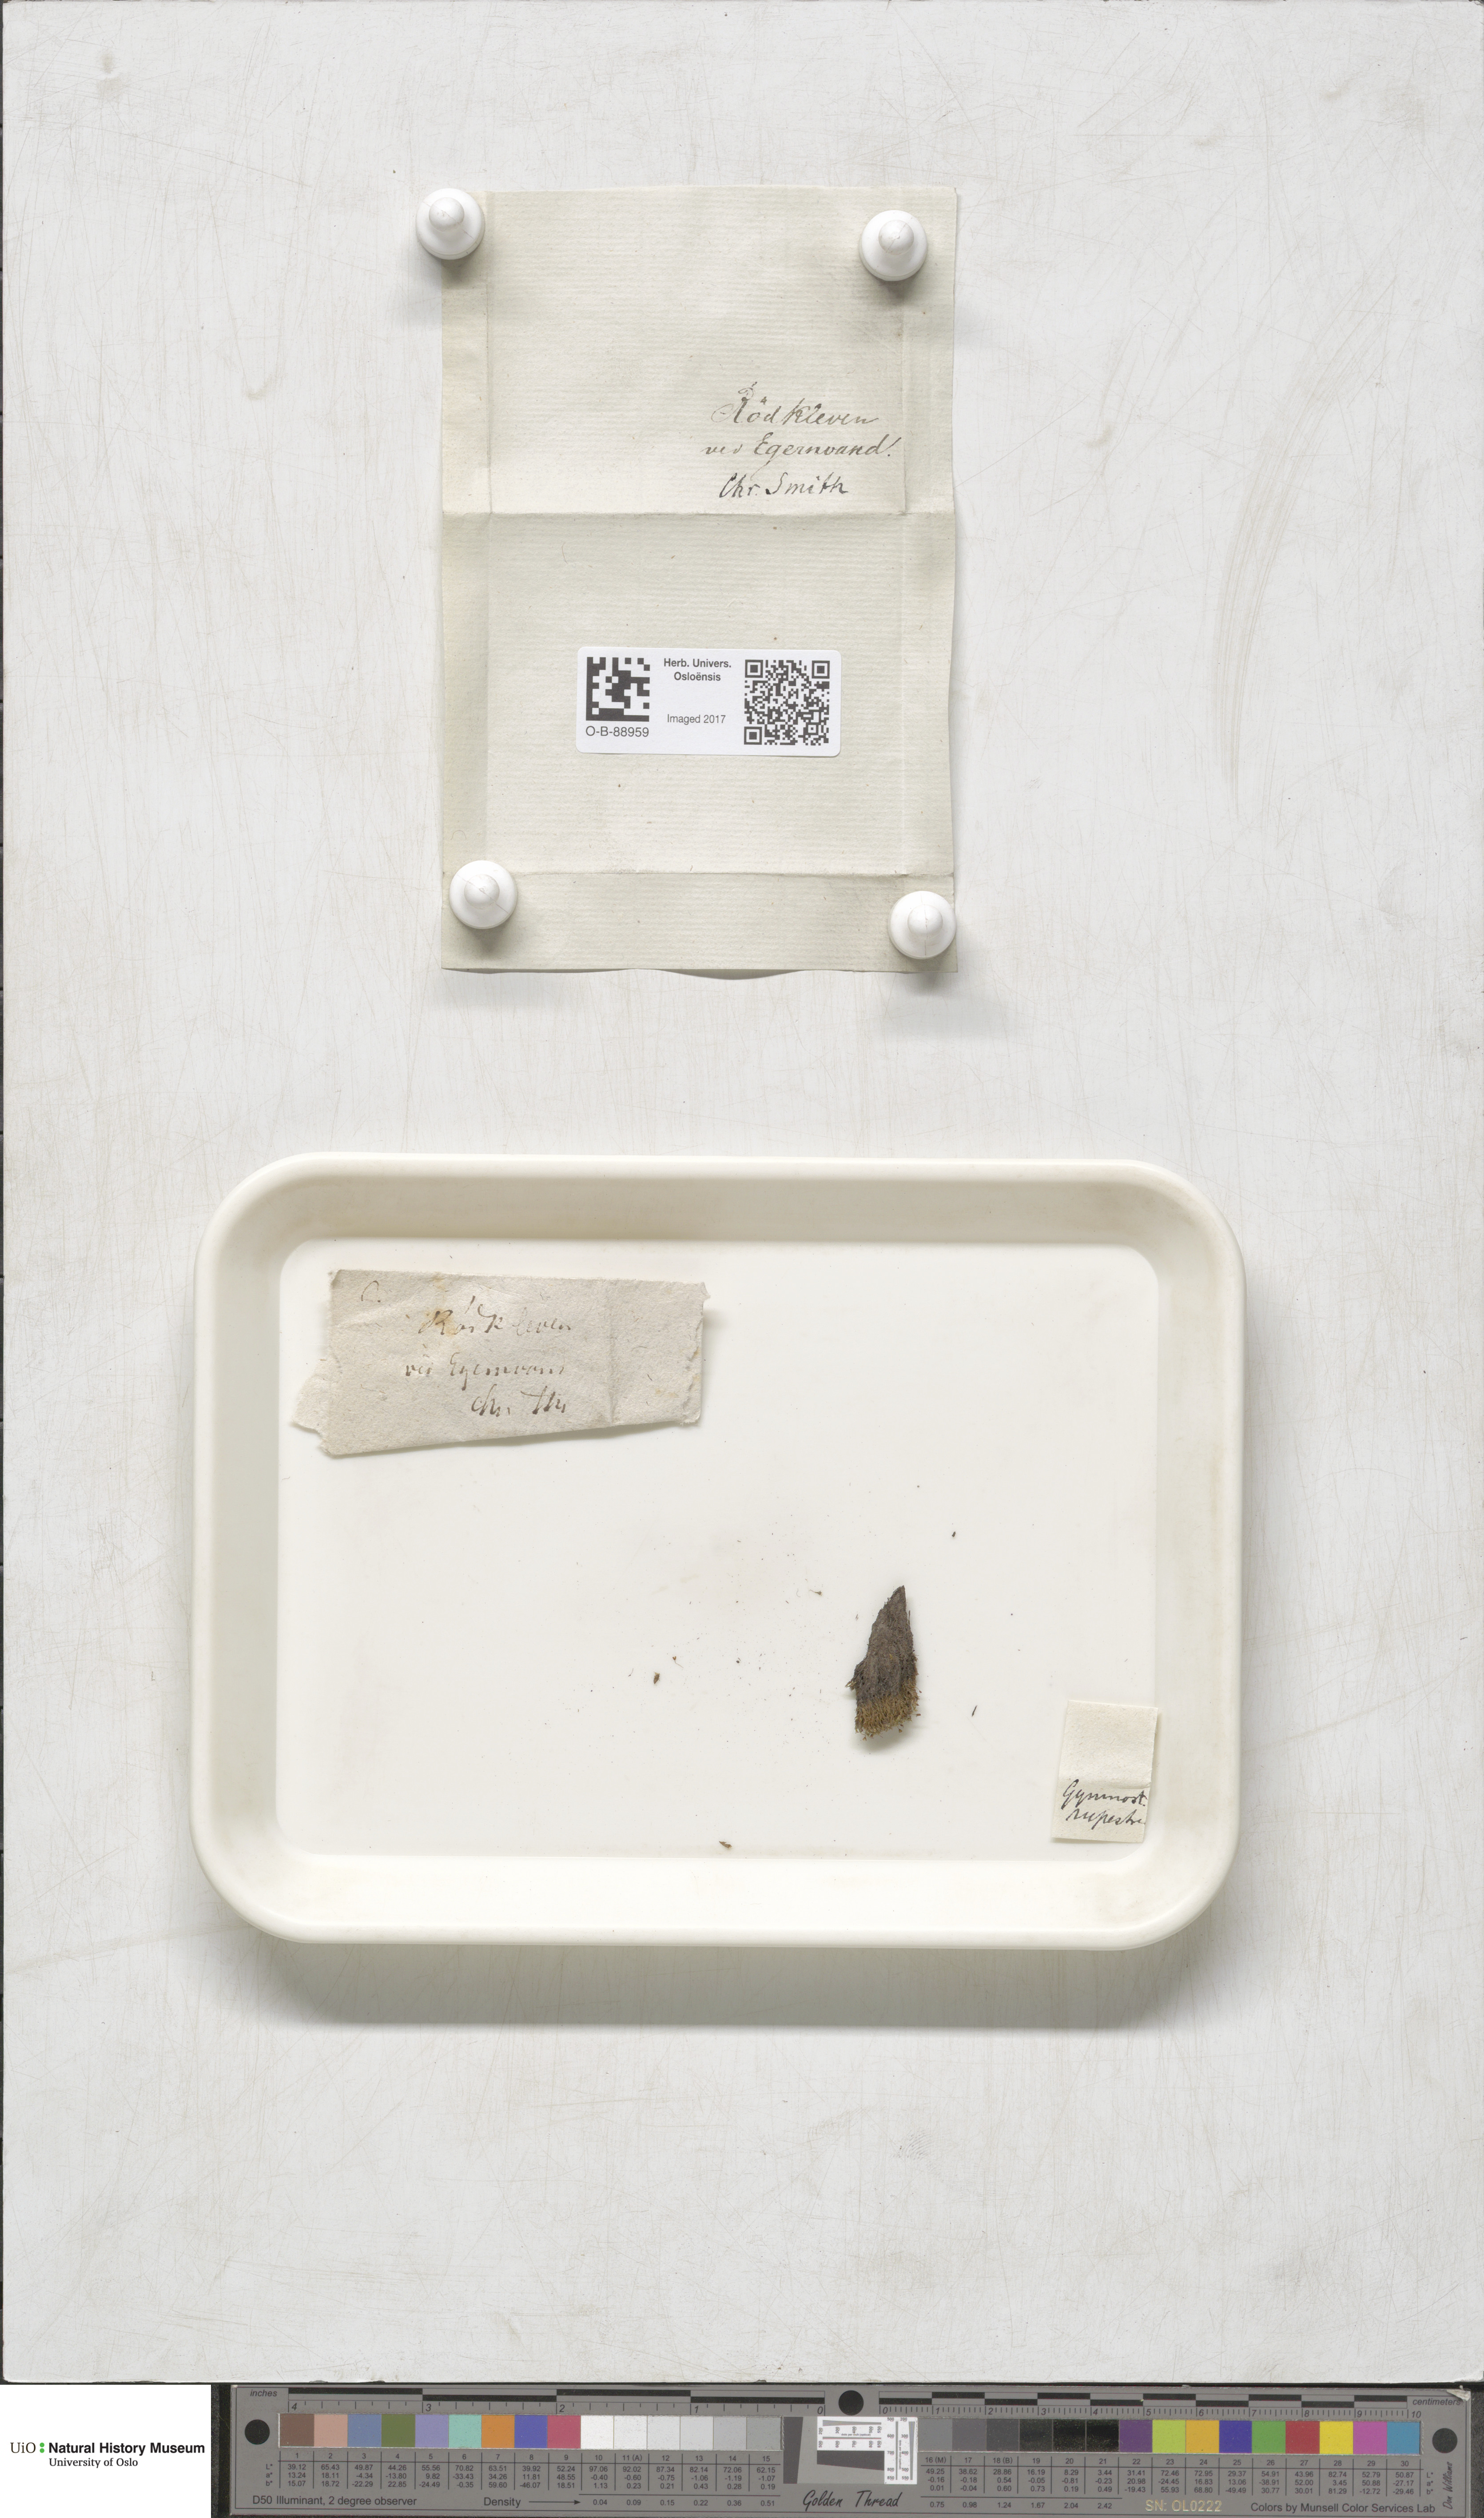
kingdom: Plantae
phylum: Bryophyta
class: Bryopsida
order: Pottiales
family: Pottiaceae
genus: Gymnostomum
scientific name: Gymnostomum aeruginosum
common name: Verdigris tufa-moss
